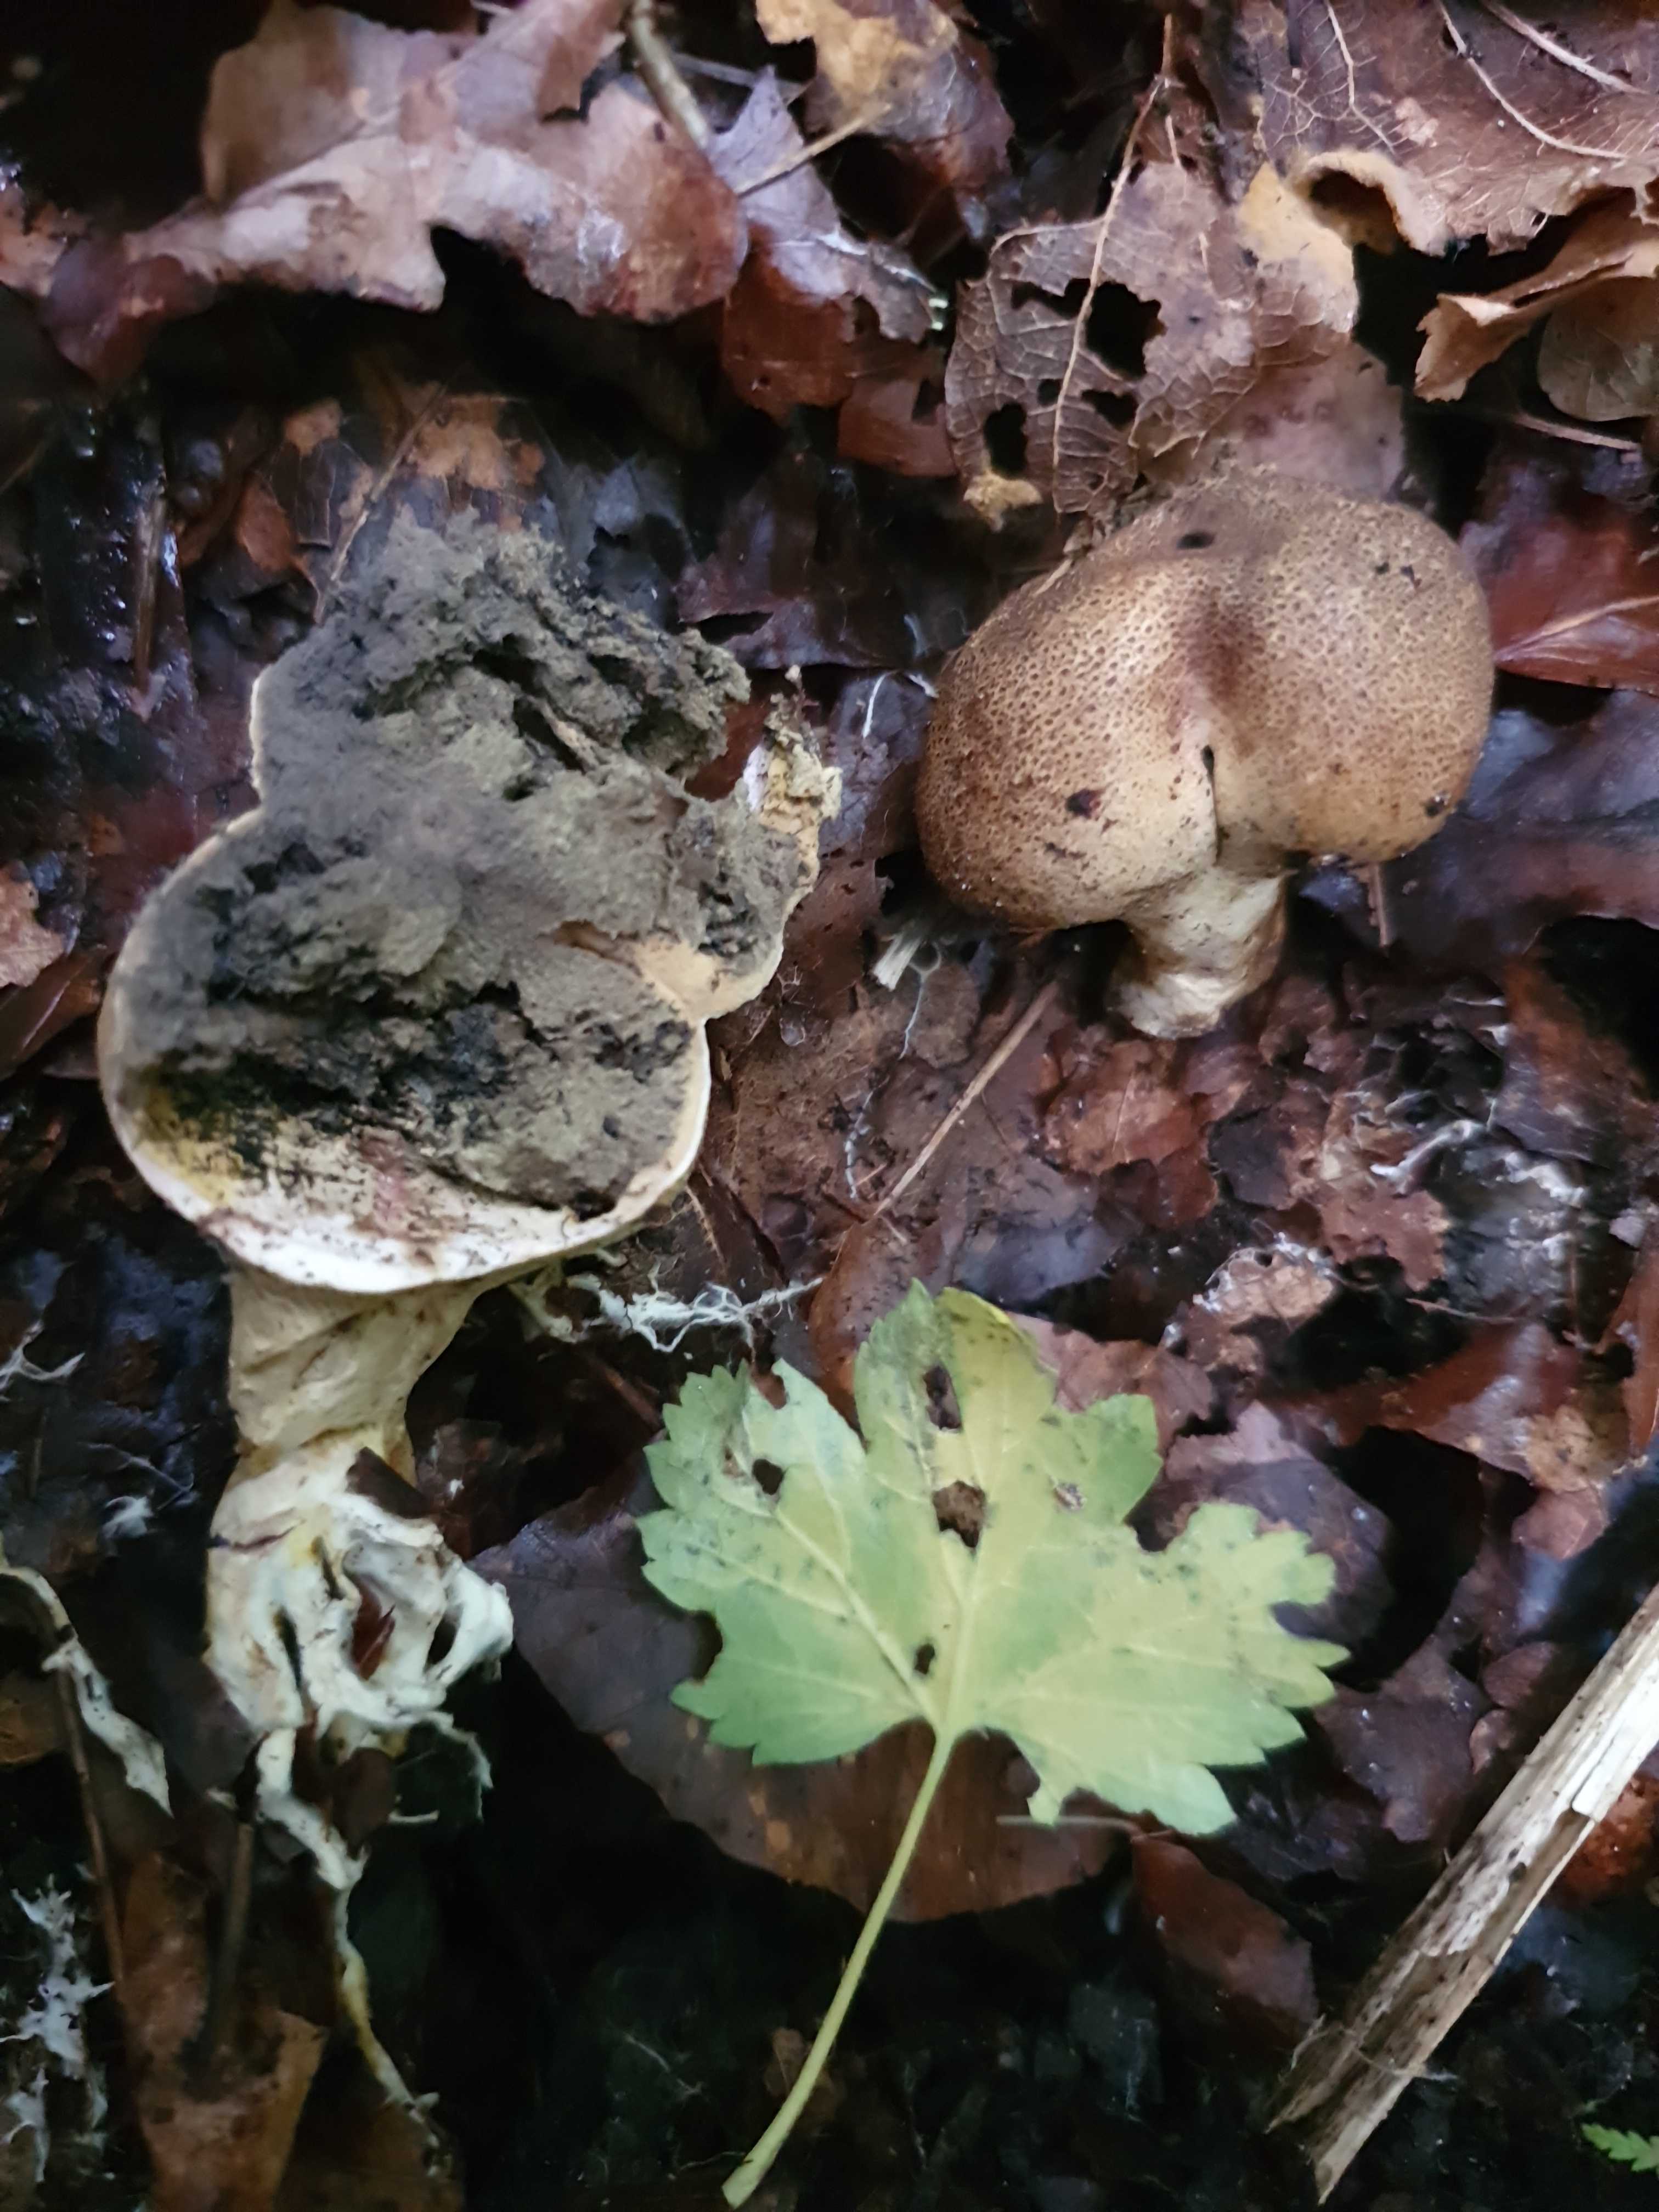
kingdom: Fungi
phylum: Basidiomycota
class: Agaricomycetes
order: Boletales
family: Sclerodermataceae
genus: Scleroderma
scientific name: Scleroderma areolatum
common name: plettet bruskbold
